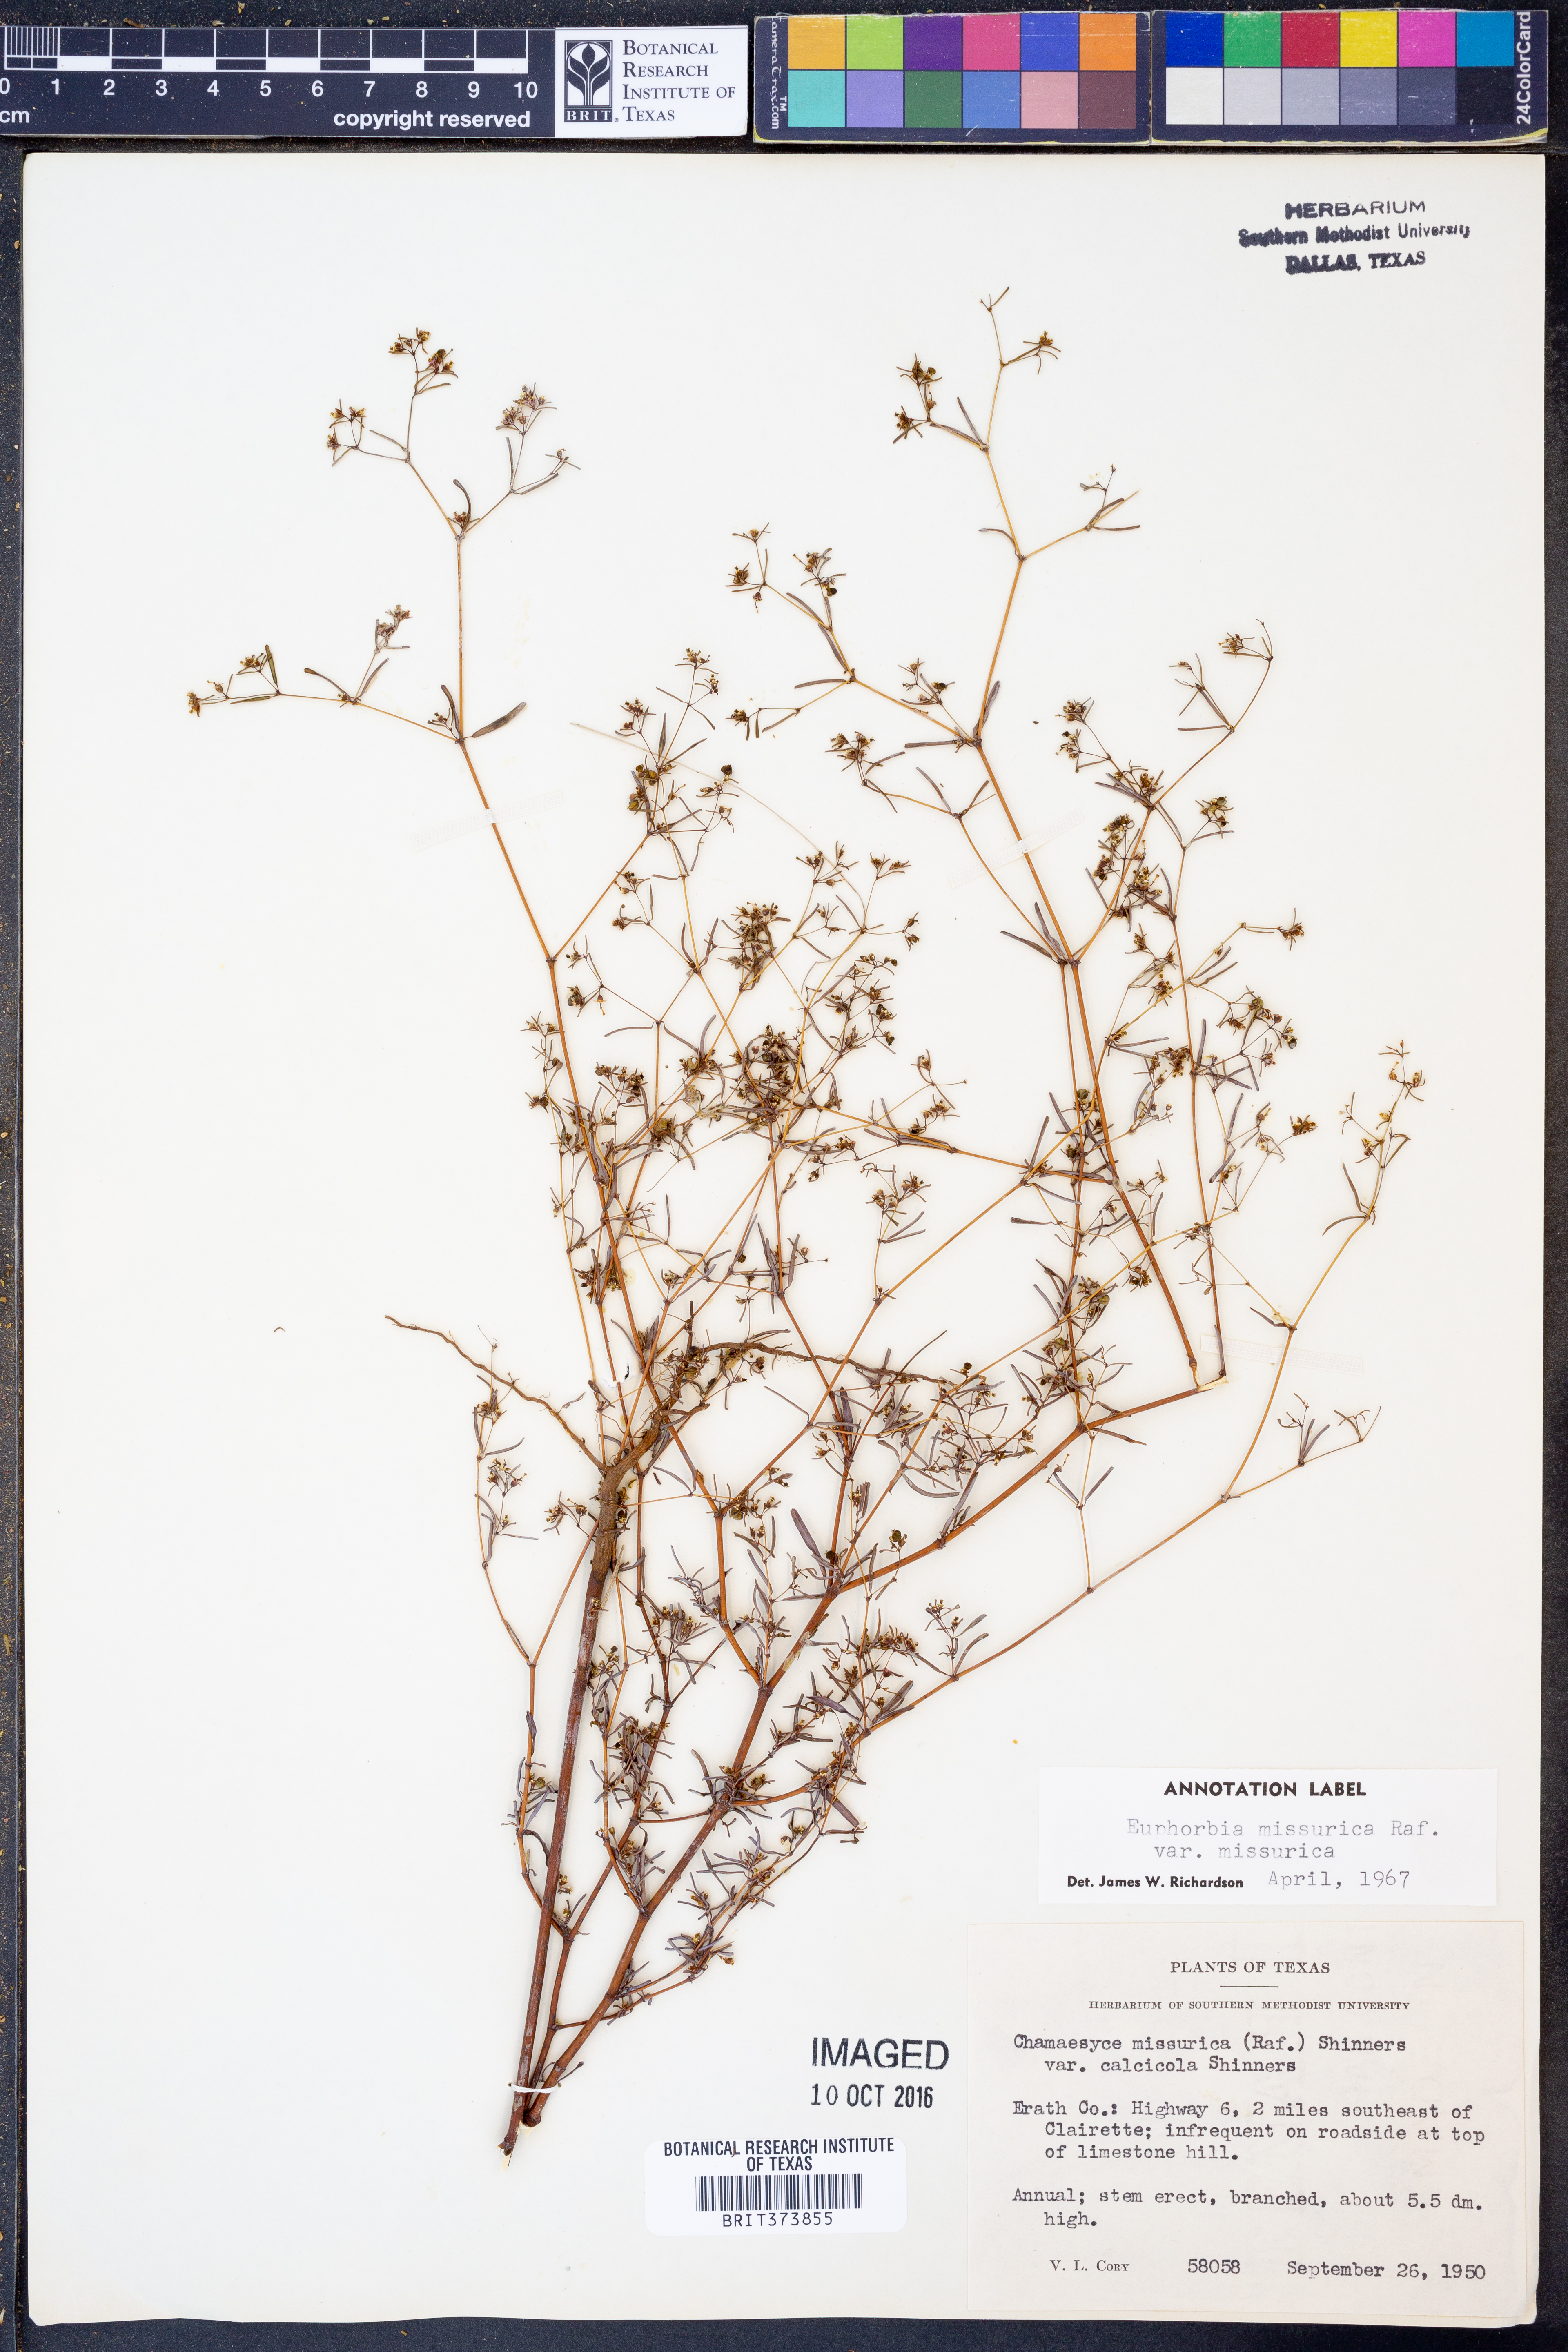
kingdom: Plantae
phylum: Tracheophyta
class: Magnoliopsida
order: Malpighiales
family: Euphorbiaceae
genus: Euphorbia
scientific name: Euphorbia missurica
